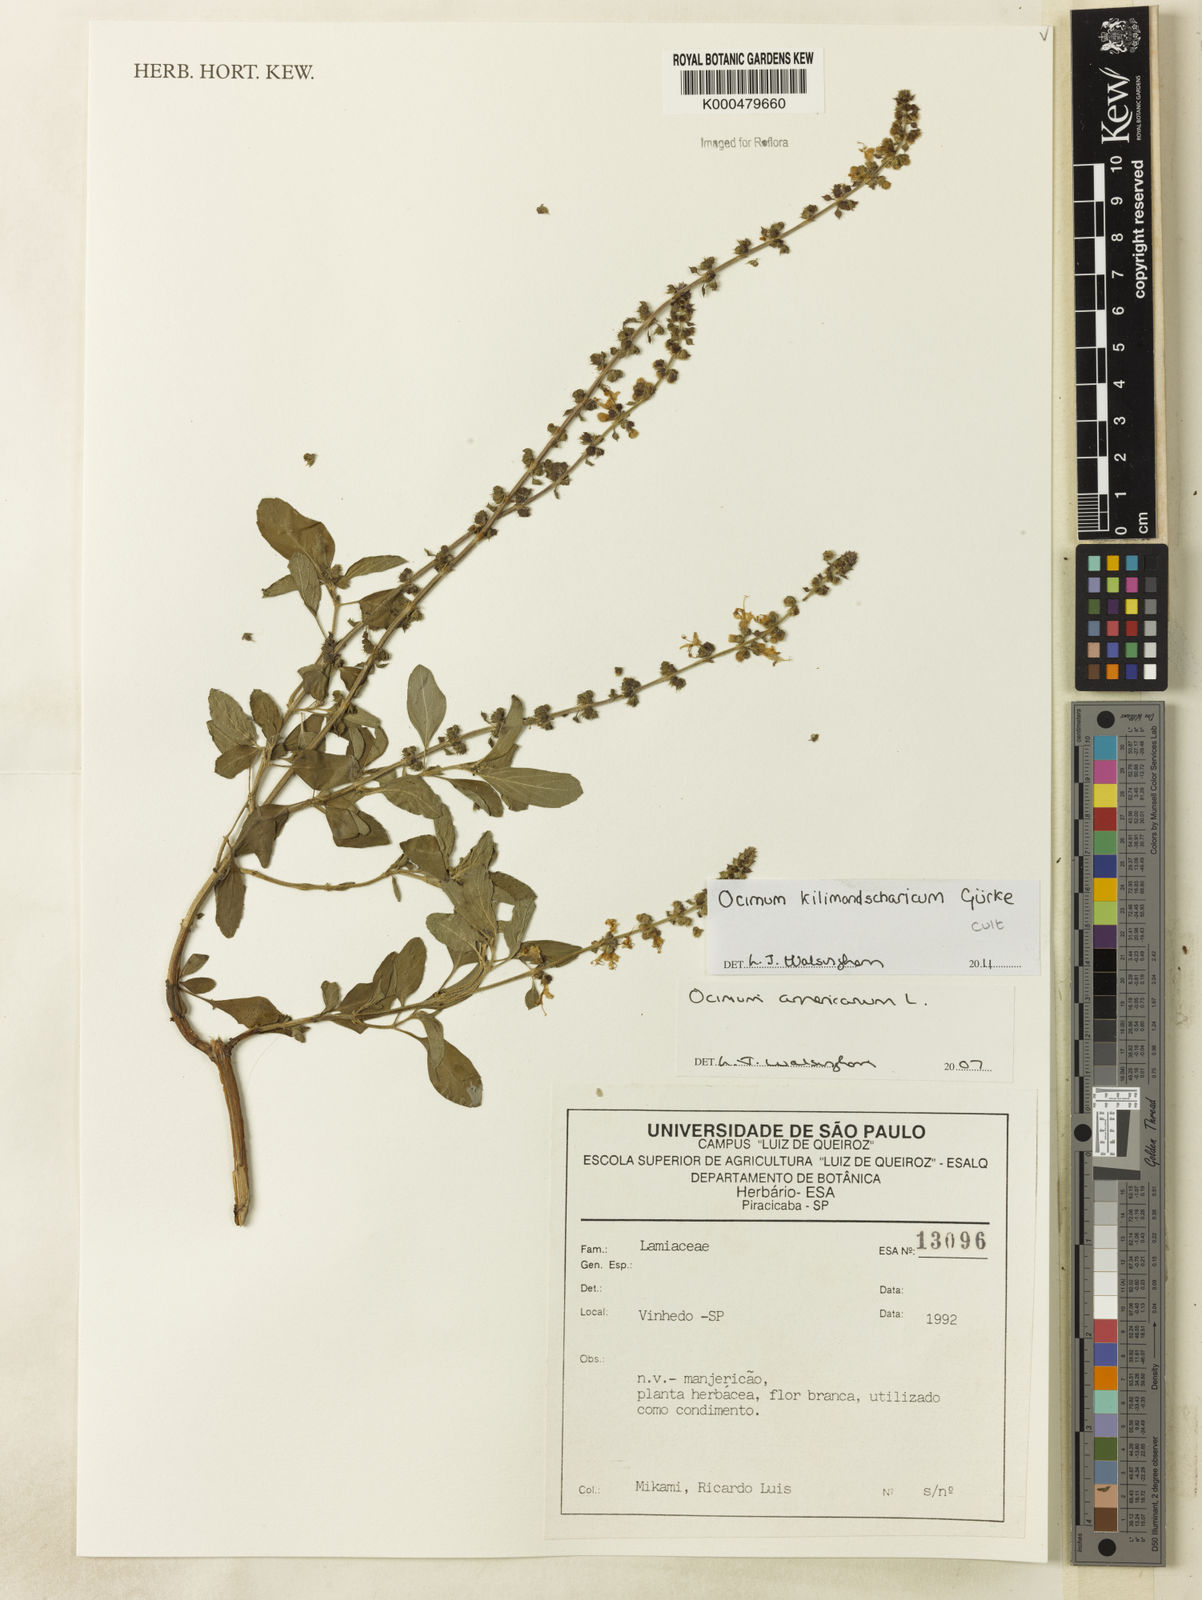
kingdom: Plantae
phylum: Tracheophyta
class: Magnoliopsida
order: Lamiales
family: Lamiaceae
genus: Ocimum
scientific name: Ocimum americanum
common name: American basil
